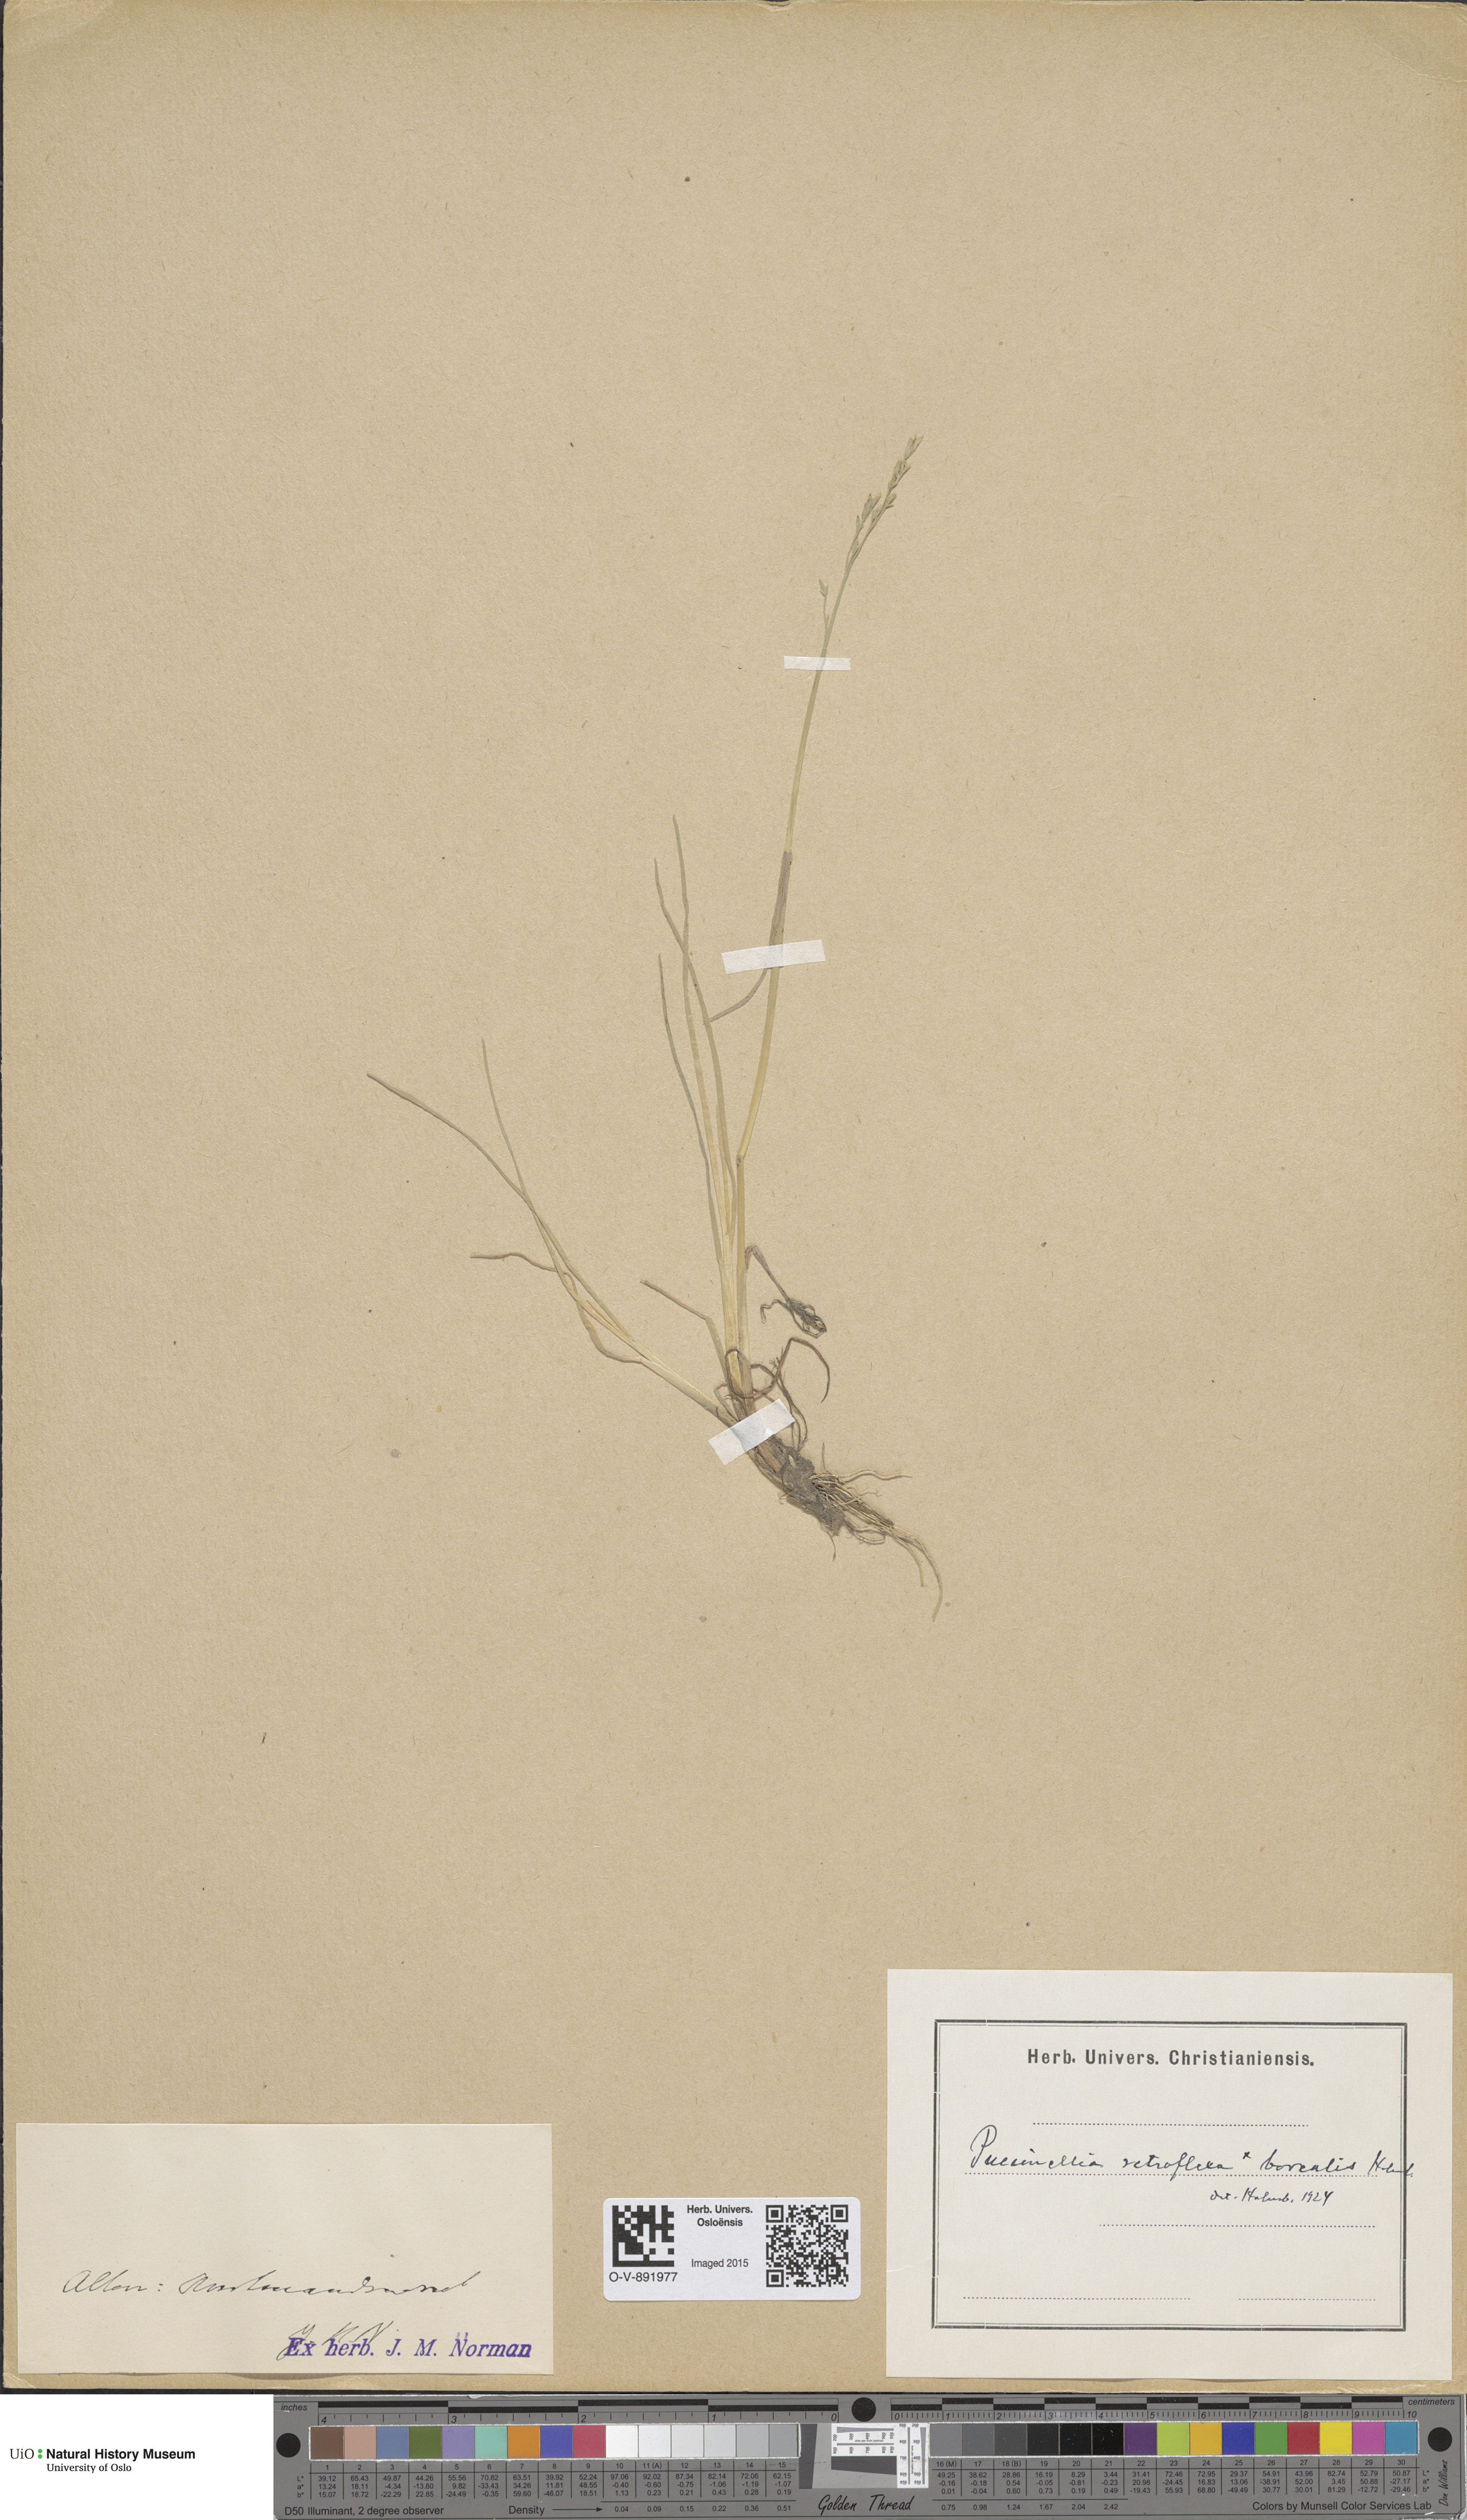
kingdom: Plantae
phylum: Tracheophyta
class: Liliopsida
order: Poales
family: Poaceae
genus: Puccinellia
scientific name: Puccinellia distans
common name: Weeping alkaligrass
